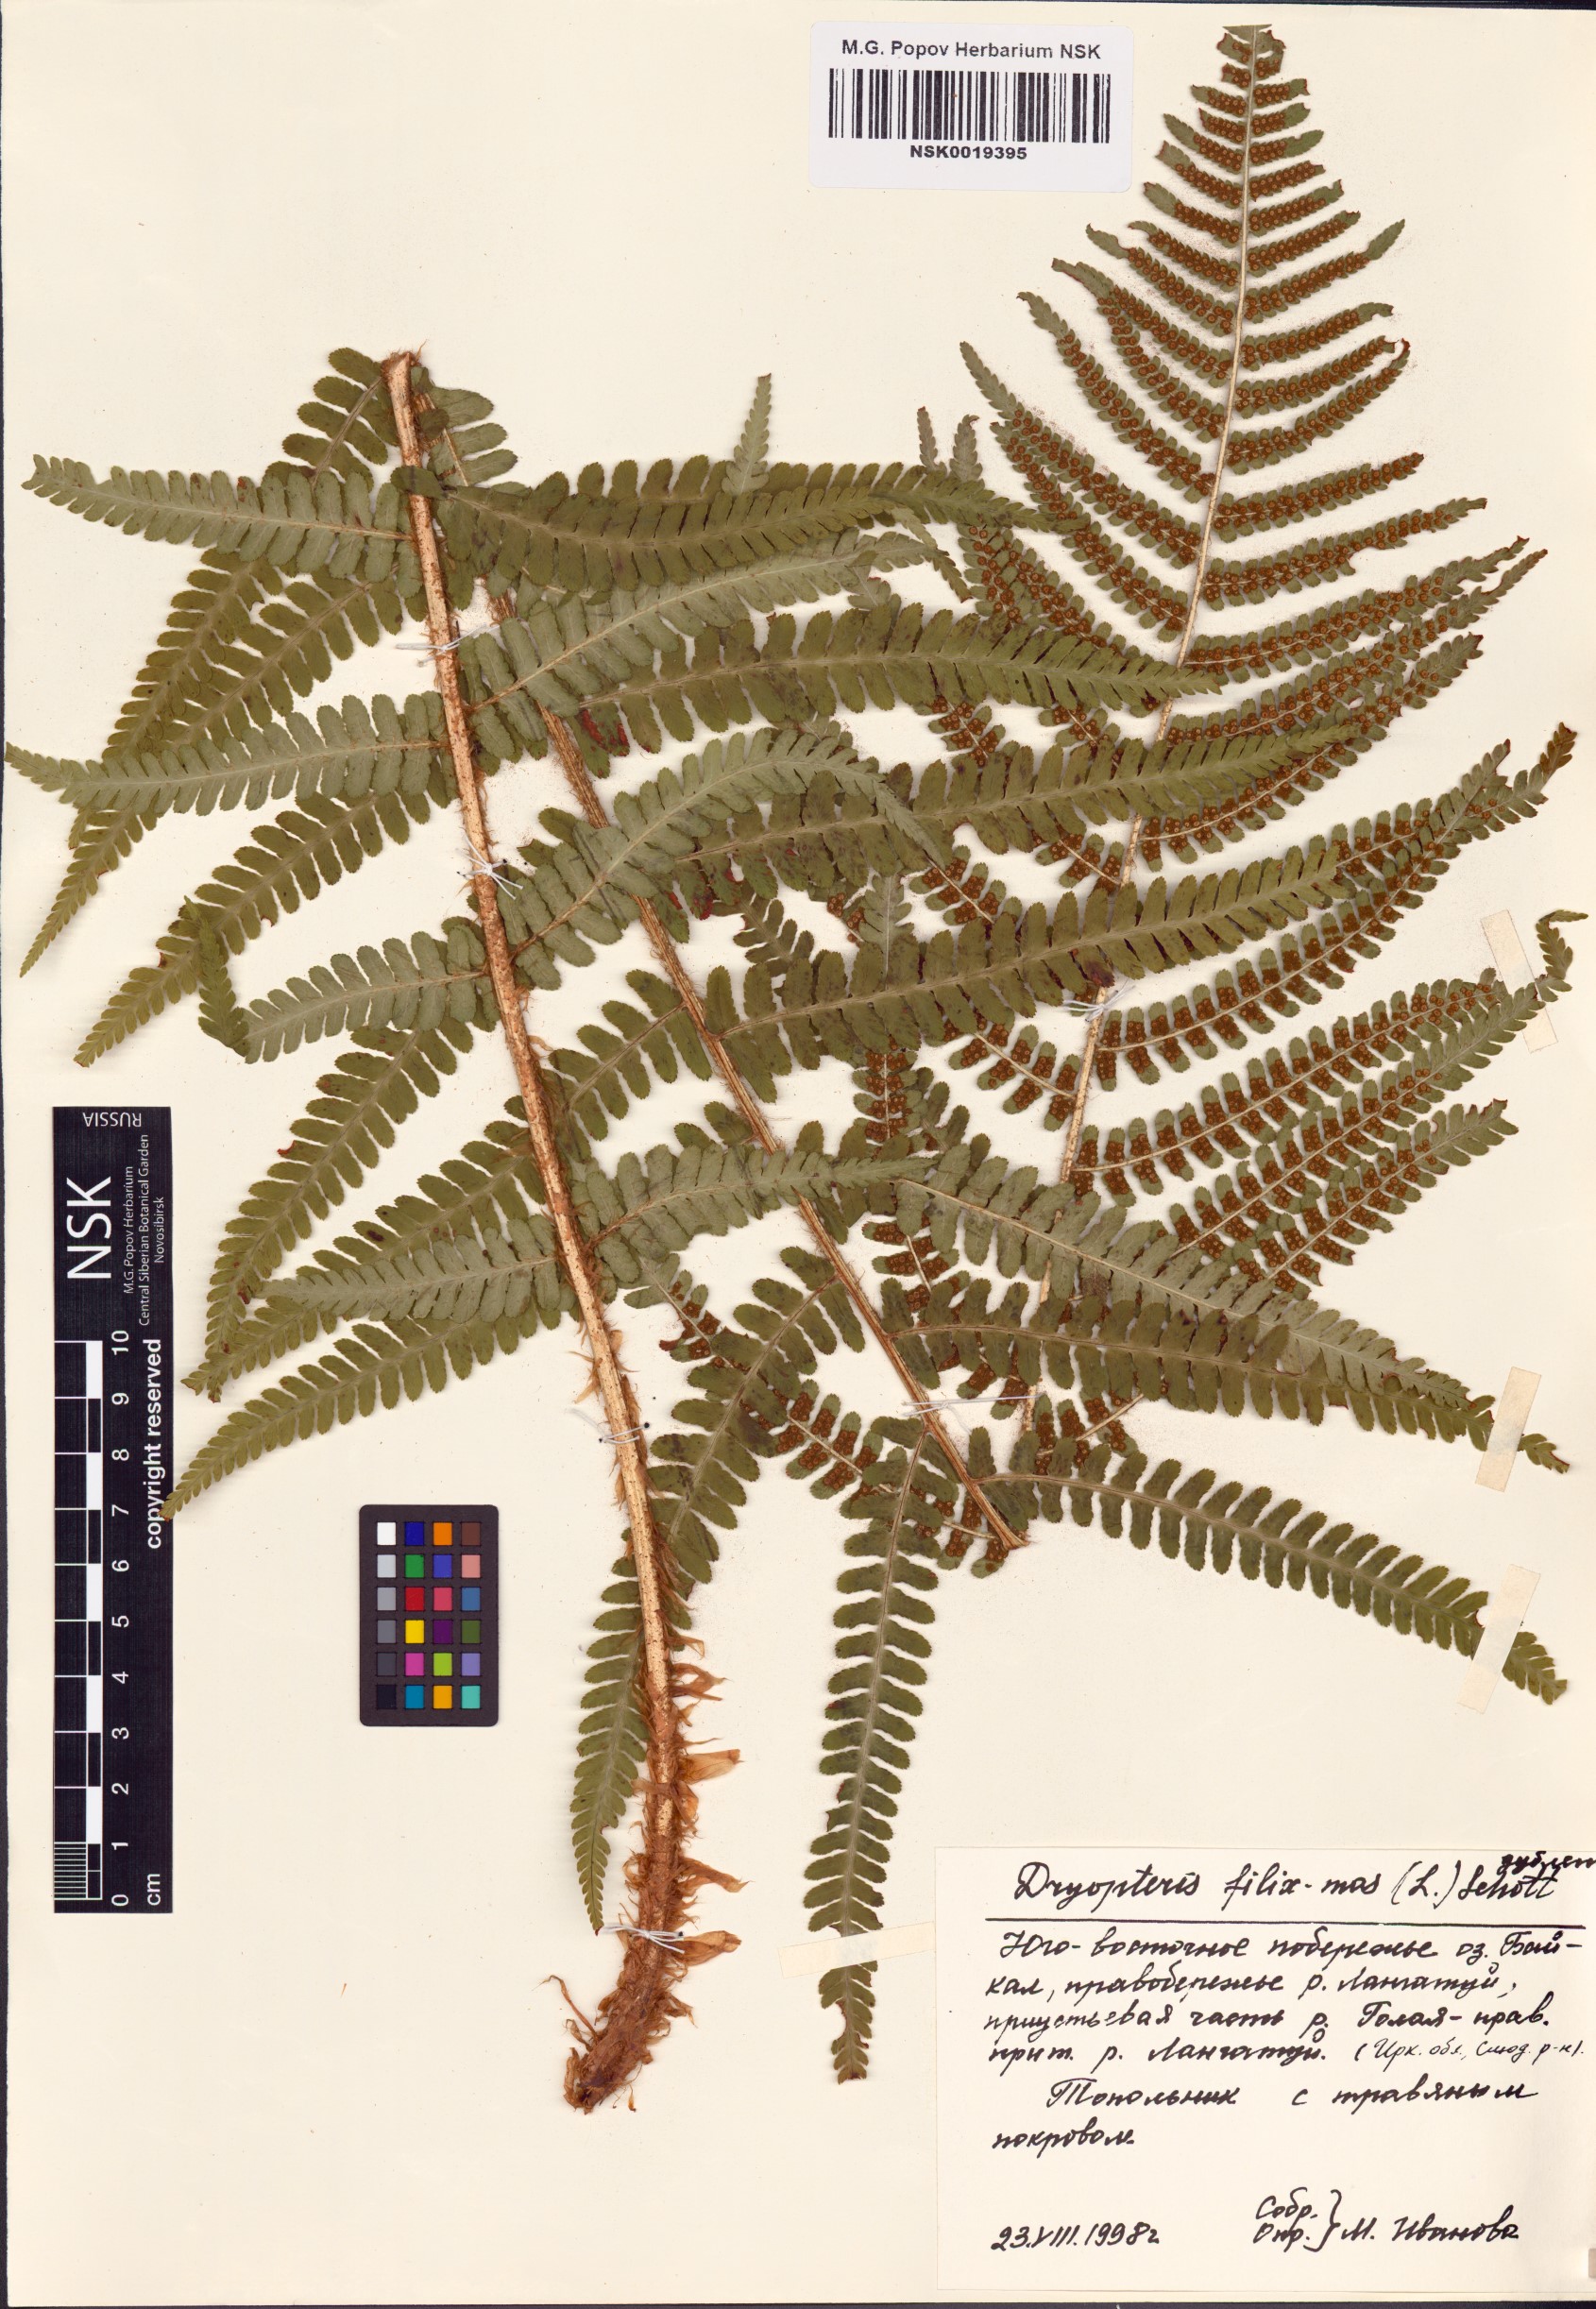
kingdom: Plantae
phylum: Tracheophyta
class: Polypodiopsida
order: Polypodiales
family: Dryopteridaceae
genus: Dryopteris
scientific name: Dryopteris filix-mas
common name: Male fern
